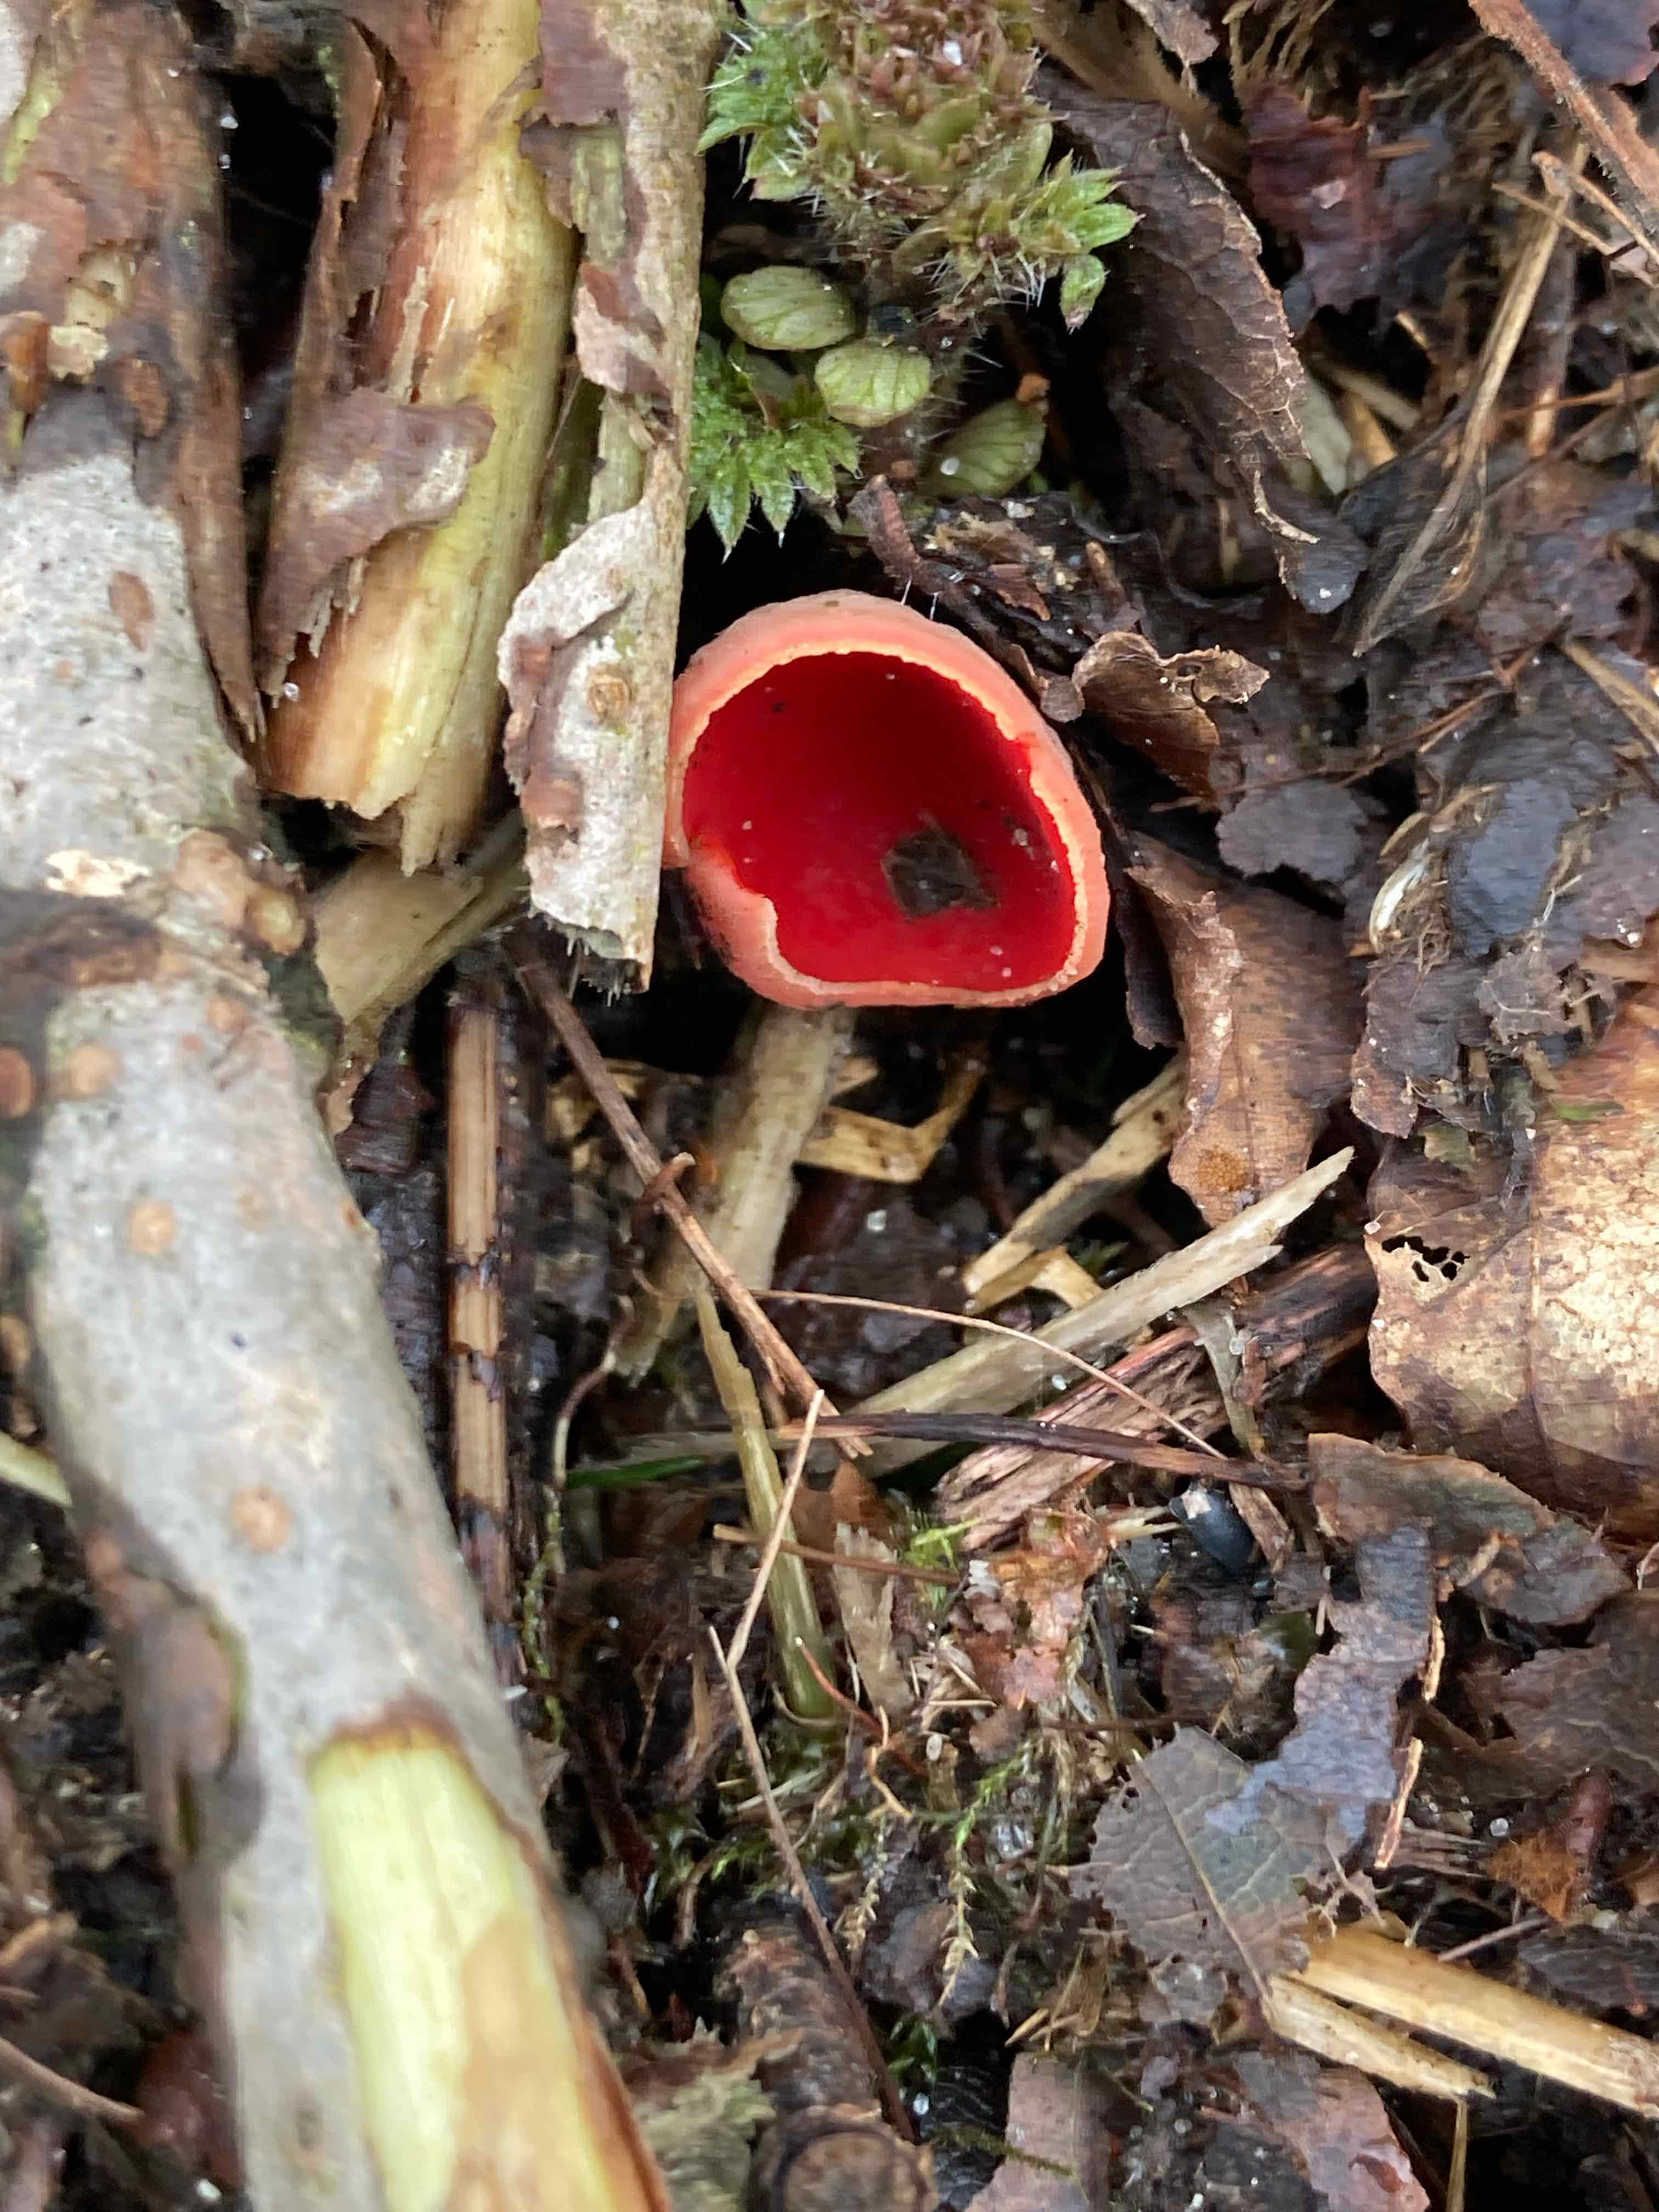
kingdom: Fungi
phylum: Ascomycota
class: Pezizomycetes
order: Pezizales
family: Sarcoscyphaceae
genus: Sarcoscypha
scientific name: Sarcoscypha austriaca
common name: krølhåret pragtbæger
